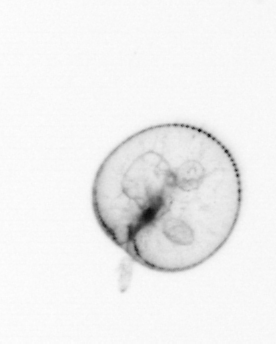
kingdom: Chromista
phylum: Myzozoa
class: Dinophyceae
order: Noctilucales
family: Noctilucaceae
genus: Noctiluca
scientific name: Noctiluca scintillans
